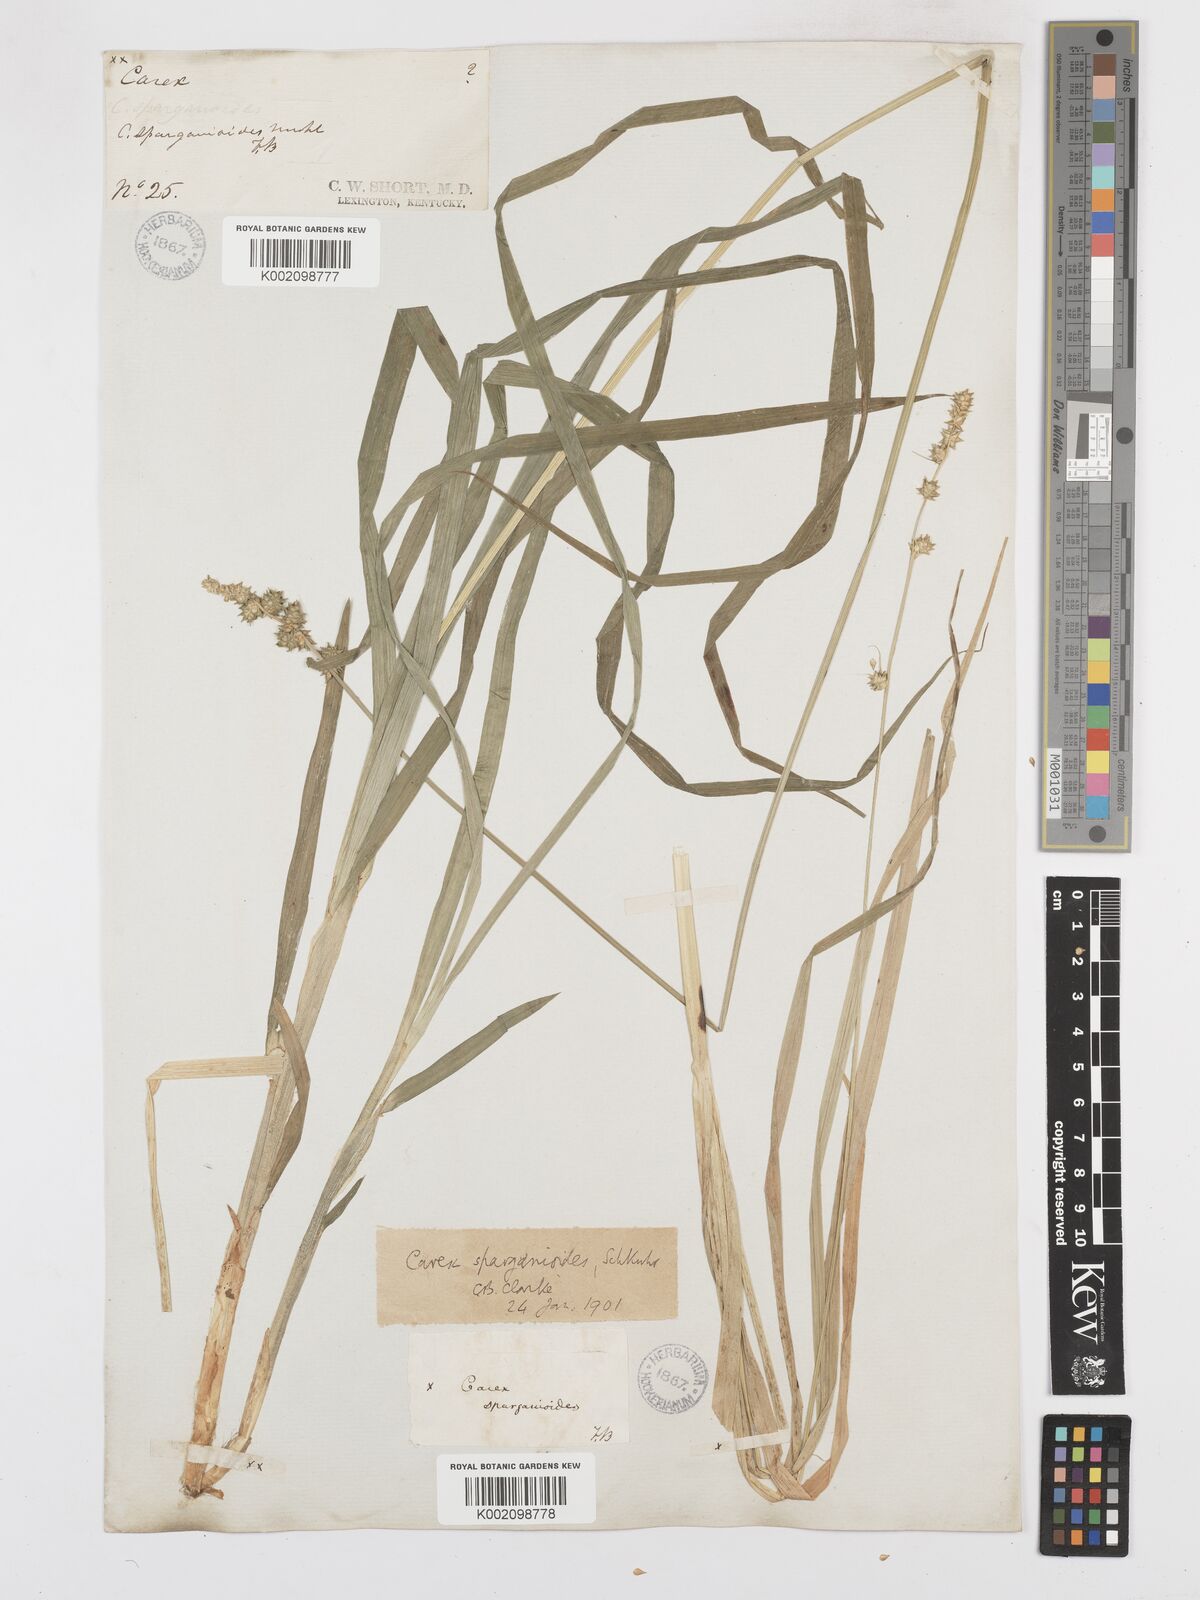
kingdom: Plantae
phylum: Tracheophyta
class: Liliopsida
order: Poales
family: Cyperaceae
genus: Carex
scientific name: Carex sparganioides
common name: Burreed sedge
